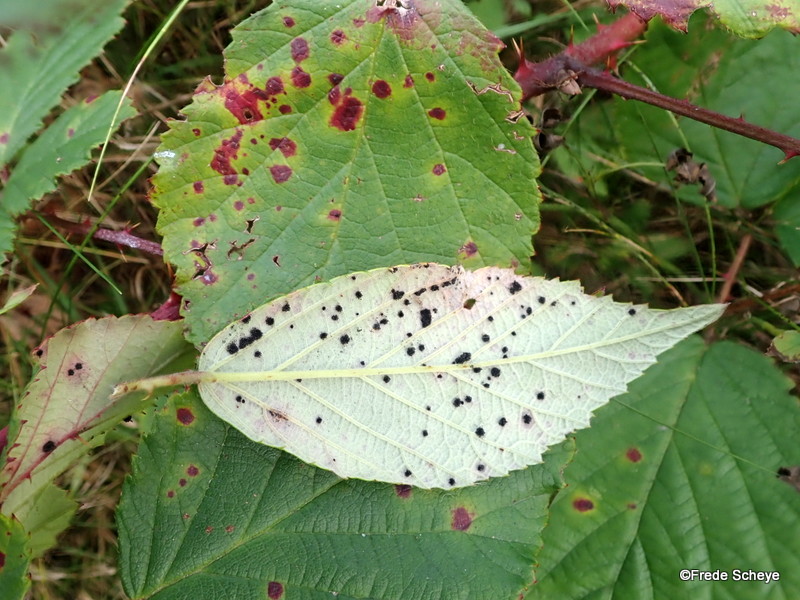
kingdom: Fungi
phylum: Basidiomycota
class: Pucciniomycetes
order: Pucciniales
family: Phragmidiaceae
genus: Phragmidium
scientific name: Phragmidium violaceum
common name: violet flercellerust
